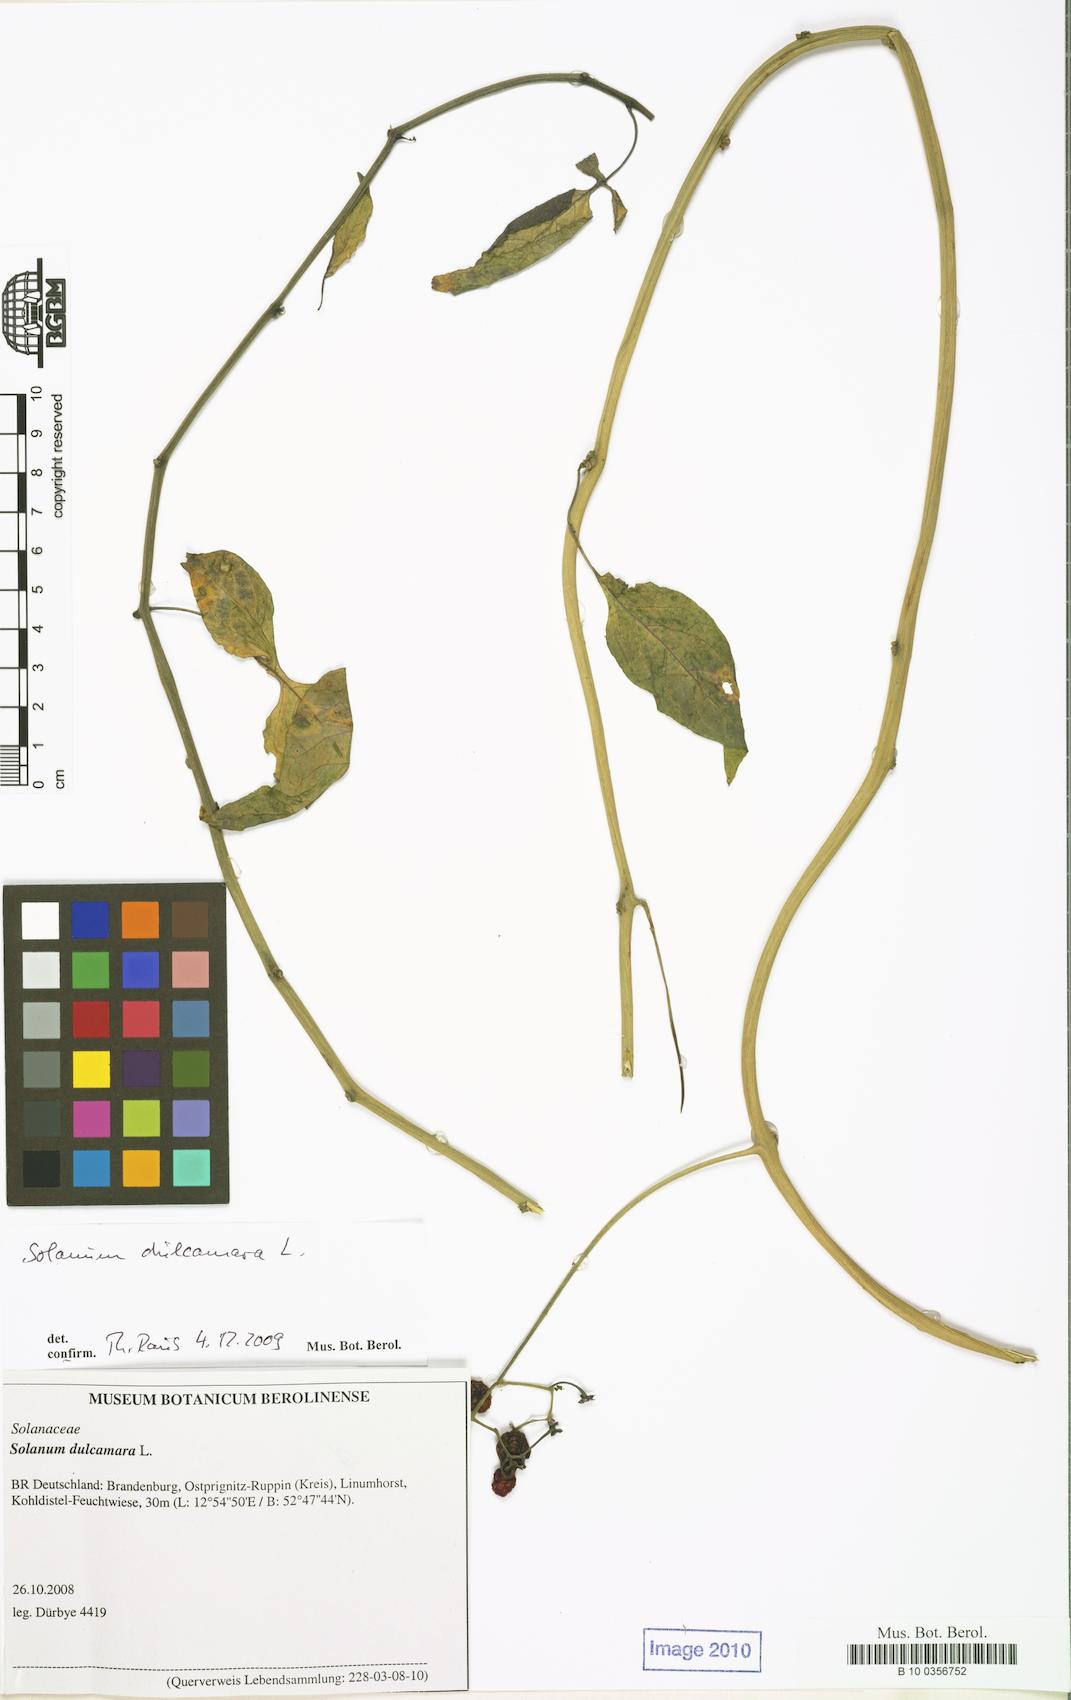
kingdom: Plantae
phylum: Tracheophyta
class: Magnoliopsida
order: Solanales
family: Solanaceae
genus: Solanum
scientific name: Solanum dulcamara
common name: Climbing nightshade
